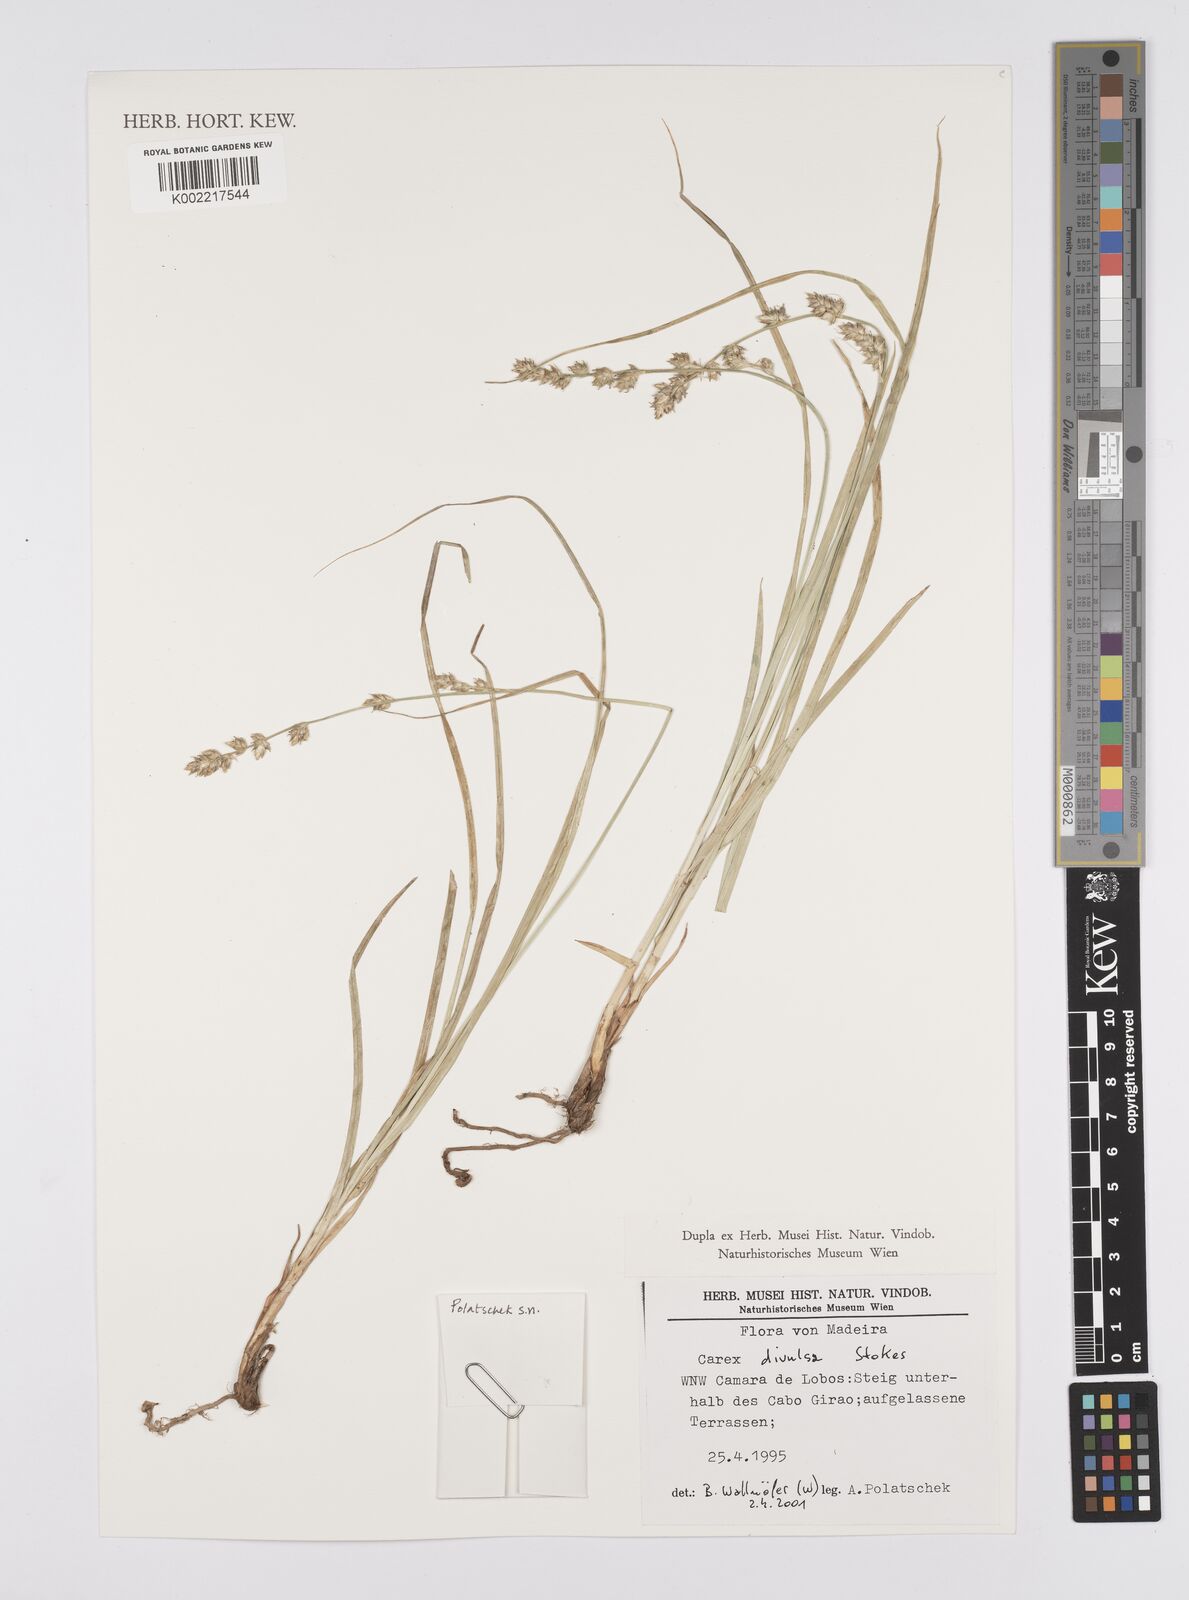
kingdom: Plantae
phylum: Tracheophyta
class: Liliopsida
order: Poales
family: Cyperaceae
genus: Carex
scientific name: Carex divulsa
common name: Grassland sedge
